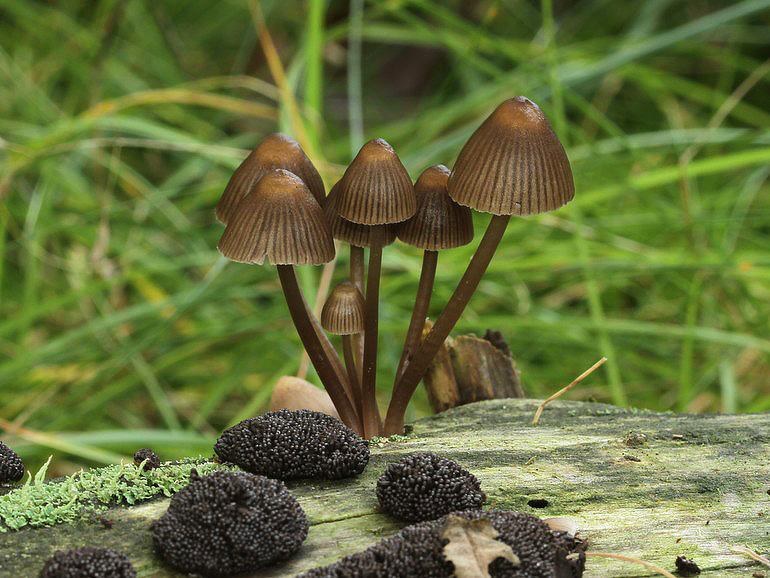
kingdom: Fungi
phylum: Basidiomycota
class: Agaricomycetes
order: Agaricales
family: Mycenaceae
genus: Mycena
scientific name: Mycena stipata
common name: stinkende huesvamp
